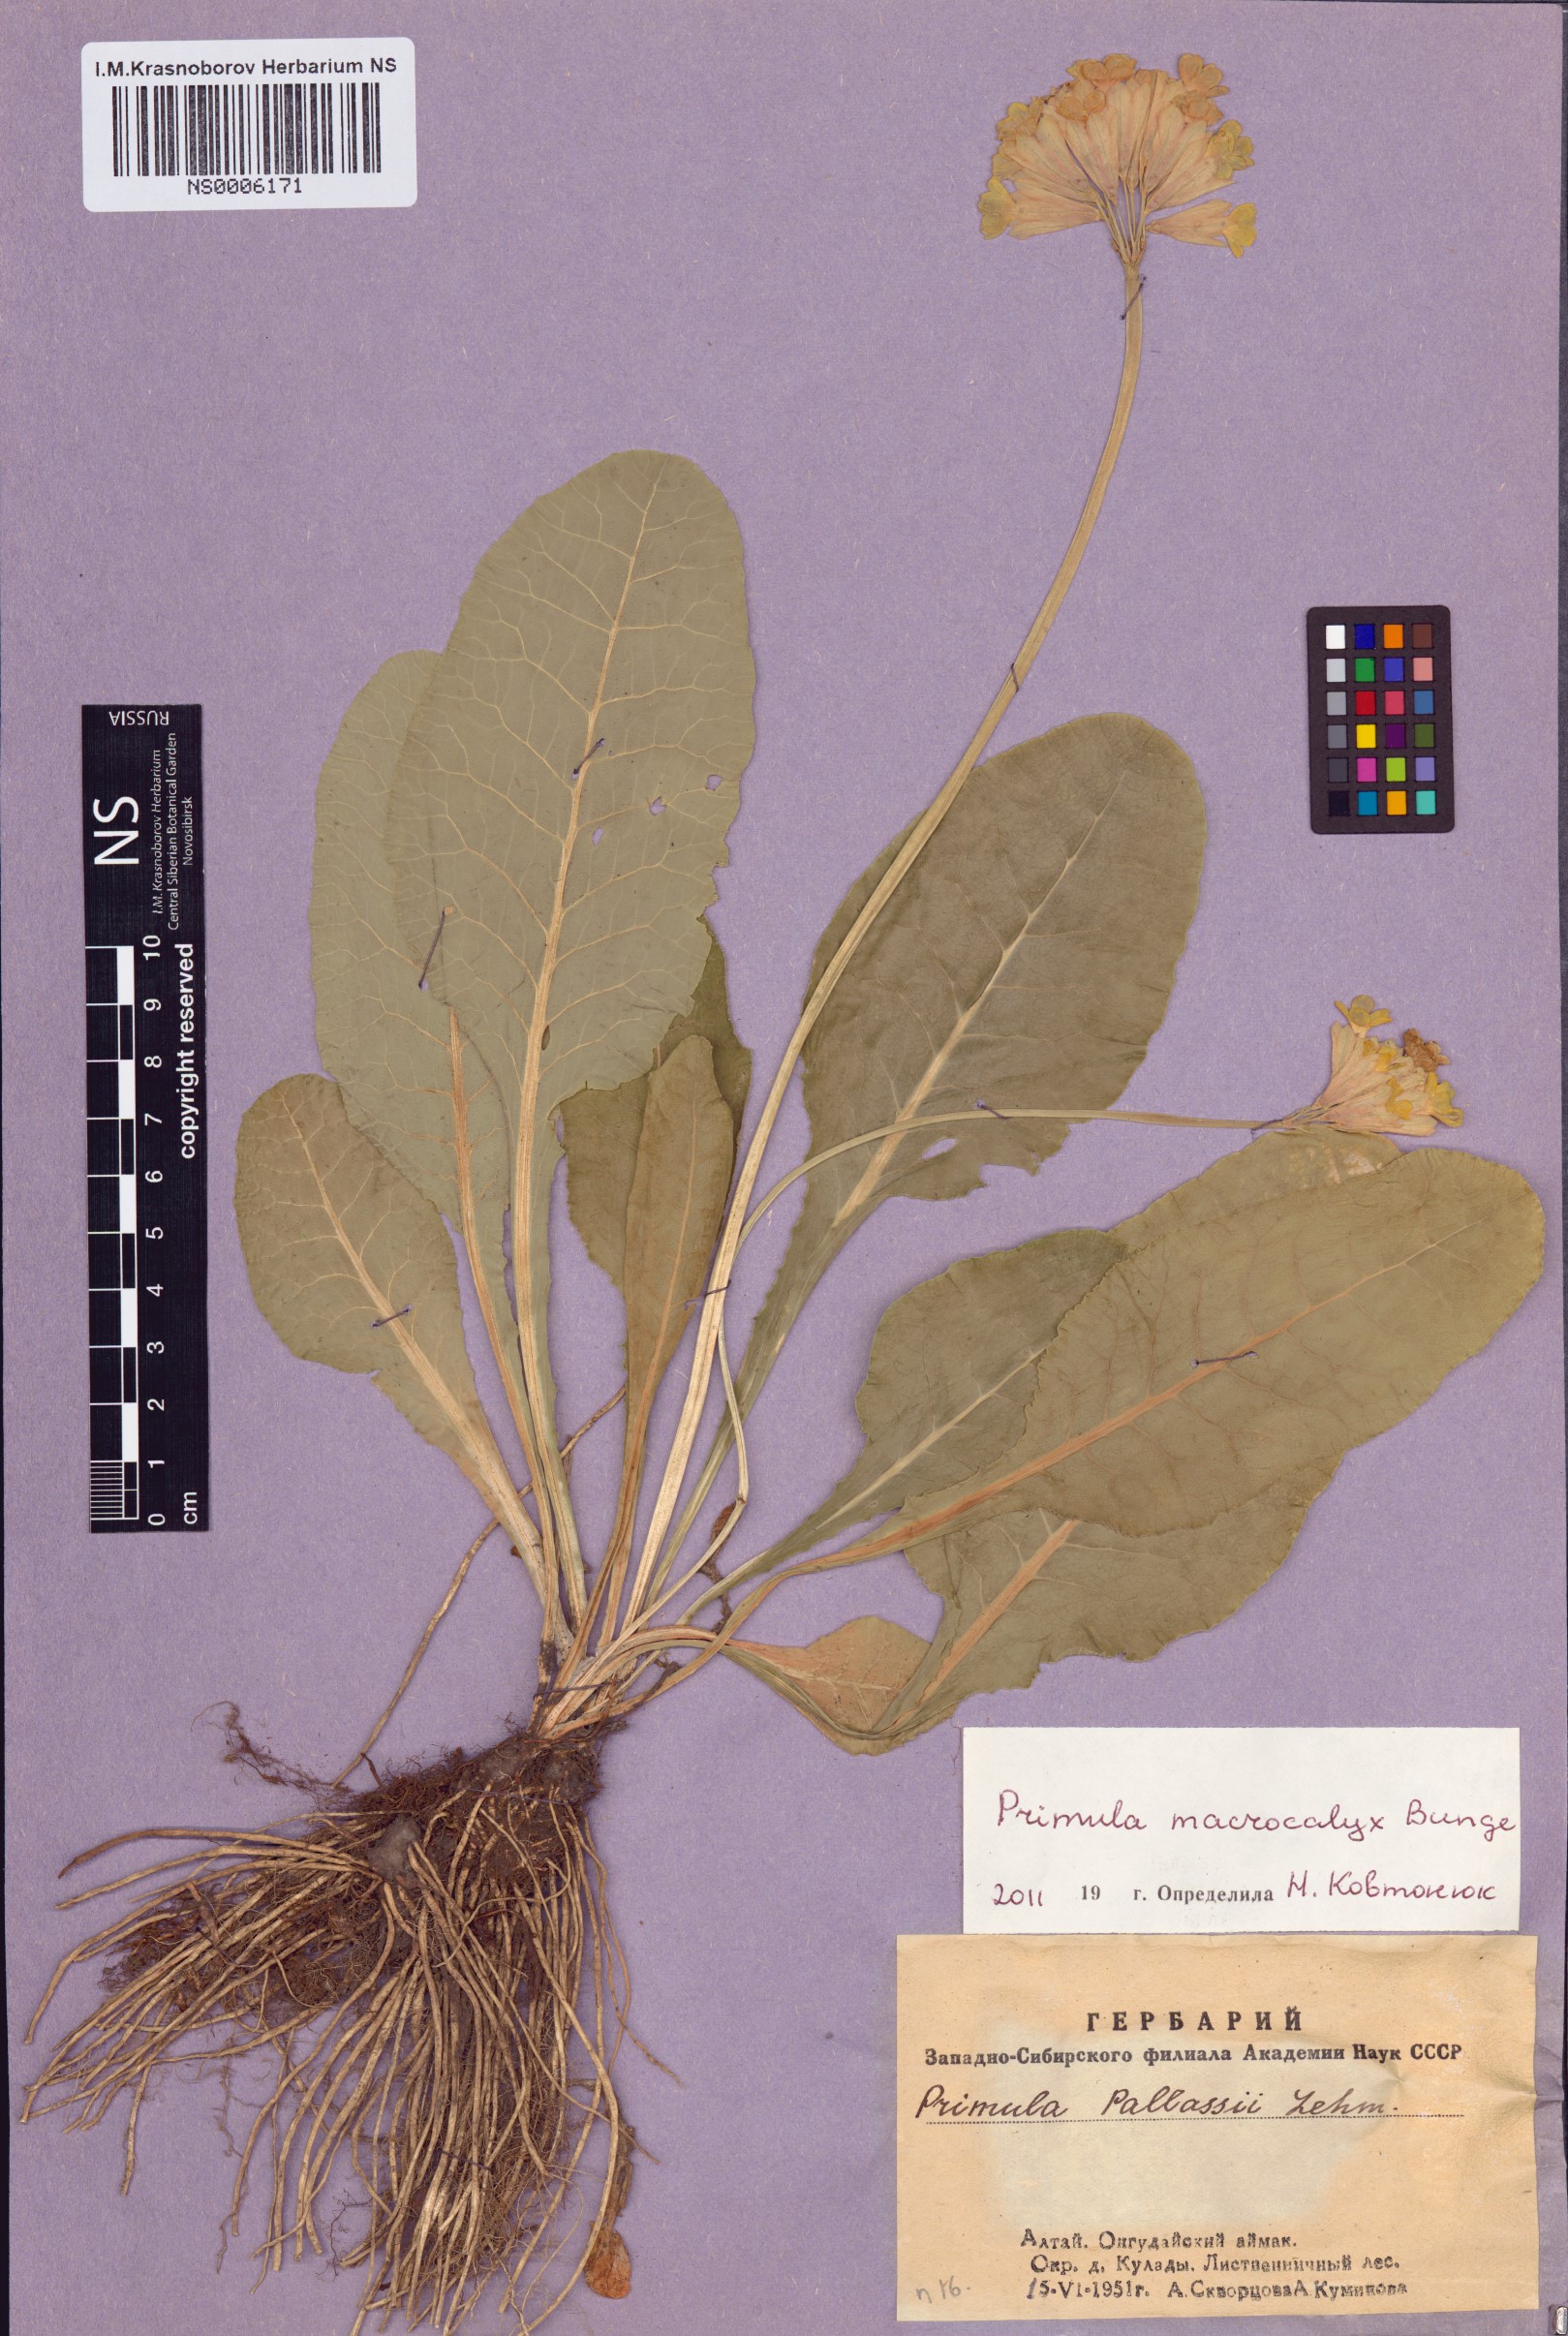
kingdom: Plantae
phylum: Tracheophyta
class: Magnoliopsida
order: Ericales
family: Primulaceae
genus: Primula
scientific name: Primula veris
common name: Cowslip
